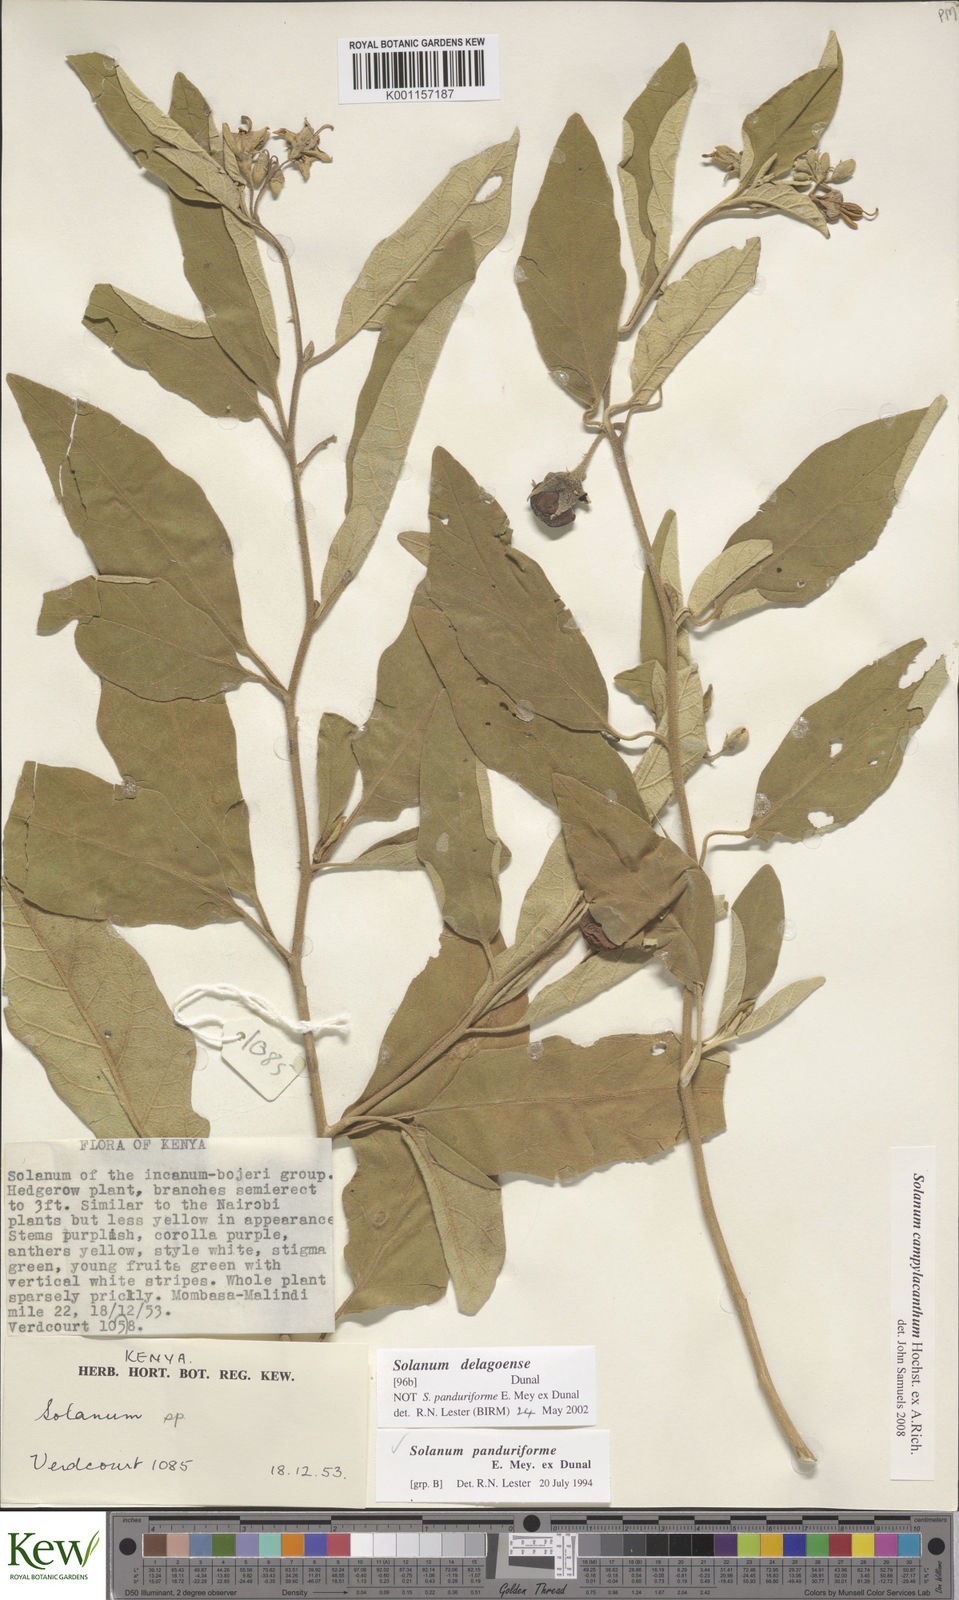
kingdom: Plantae
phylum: Tracheophyta
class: Magnoliopsida
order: Solanales
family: Solanaceae
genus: Solanum
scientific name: Solanum campylacanthum
